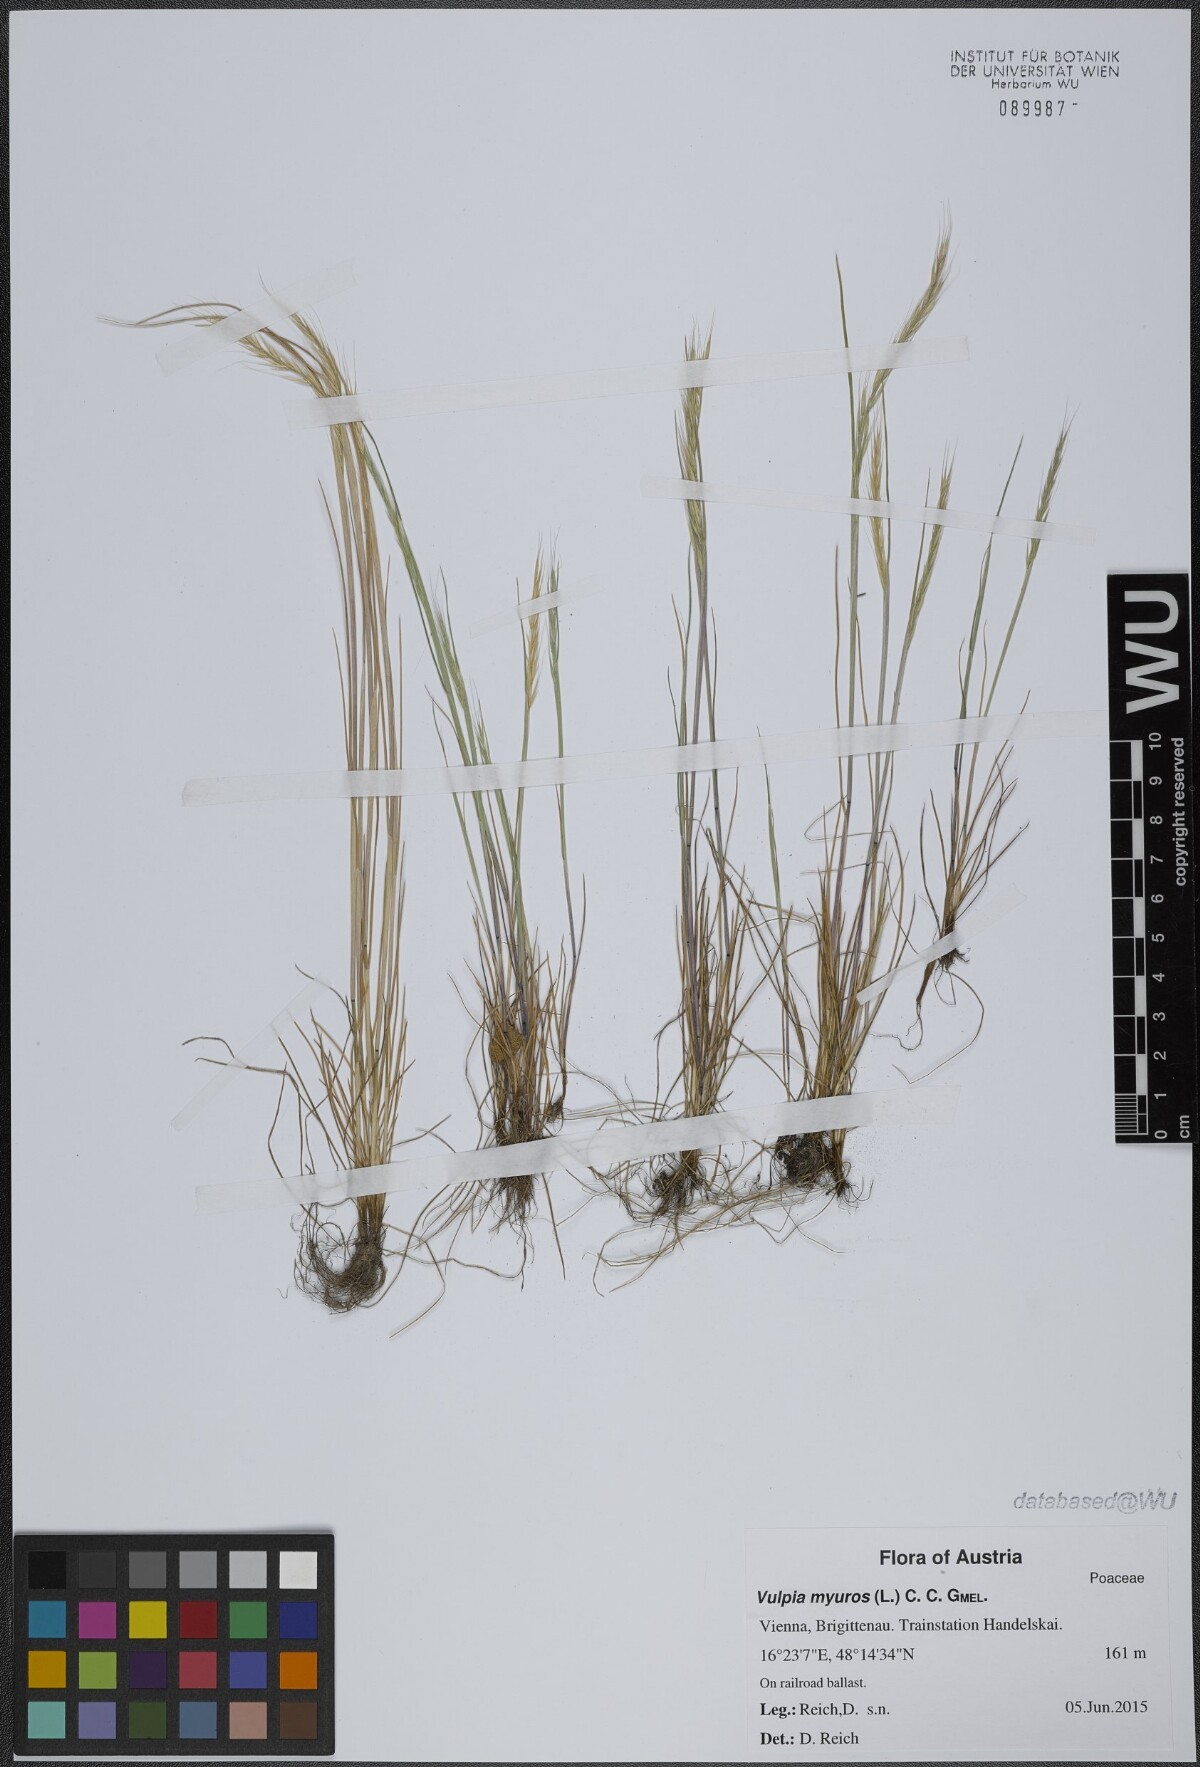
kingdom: Plantae
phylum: Tracheophyta
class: Liliopsida
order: Poales
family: Poaceae
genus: Festuca
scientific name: Festuca myuros
